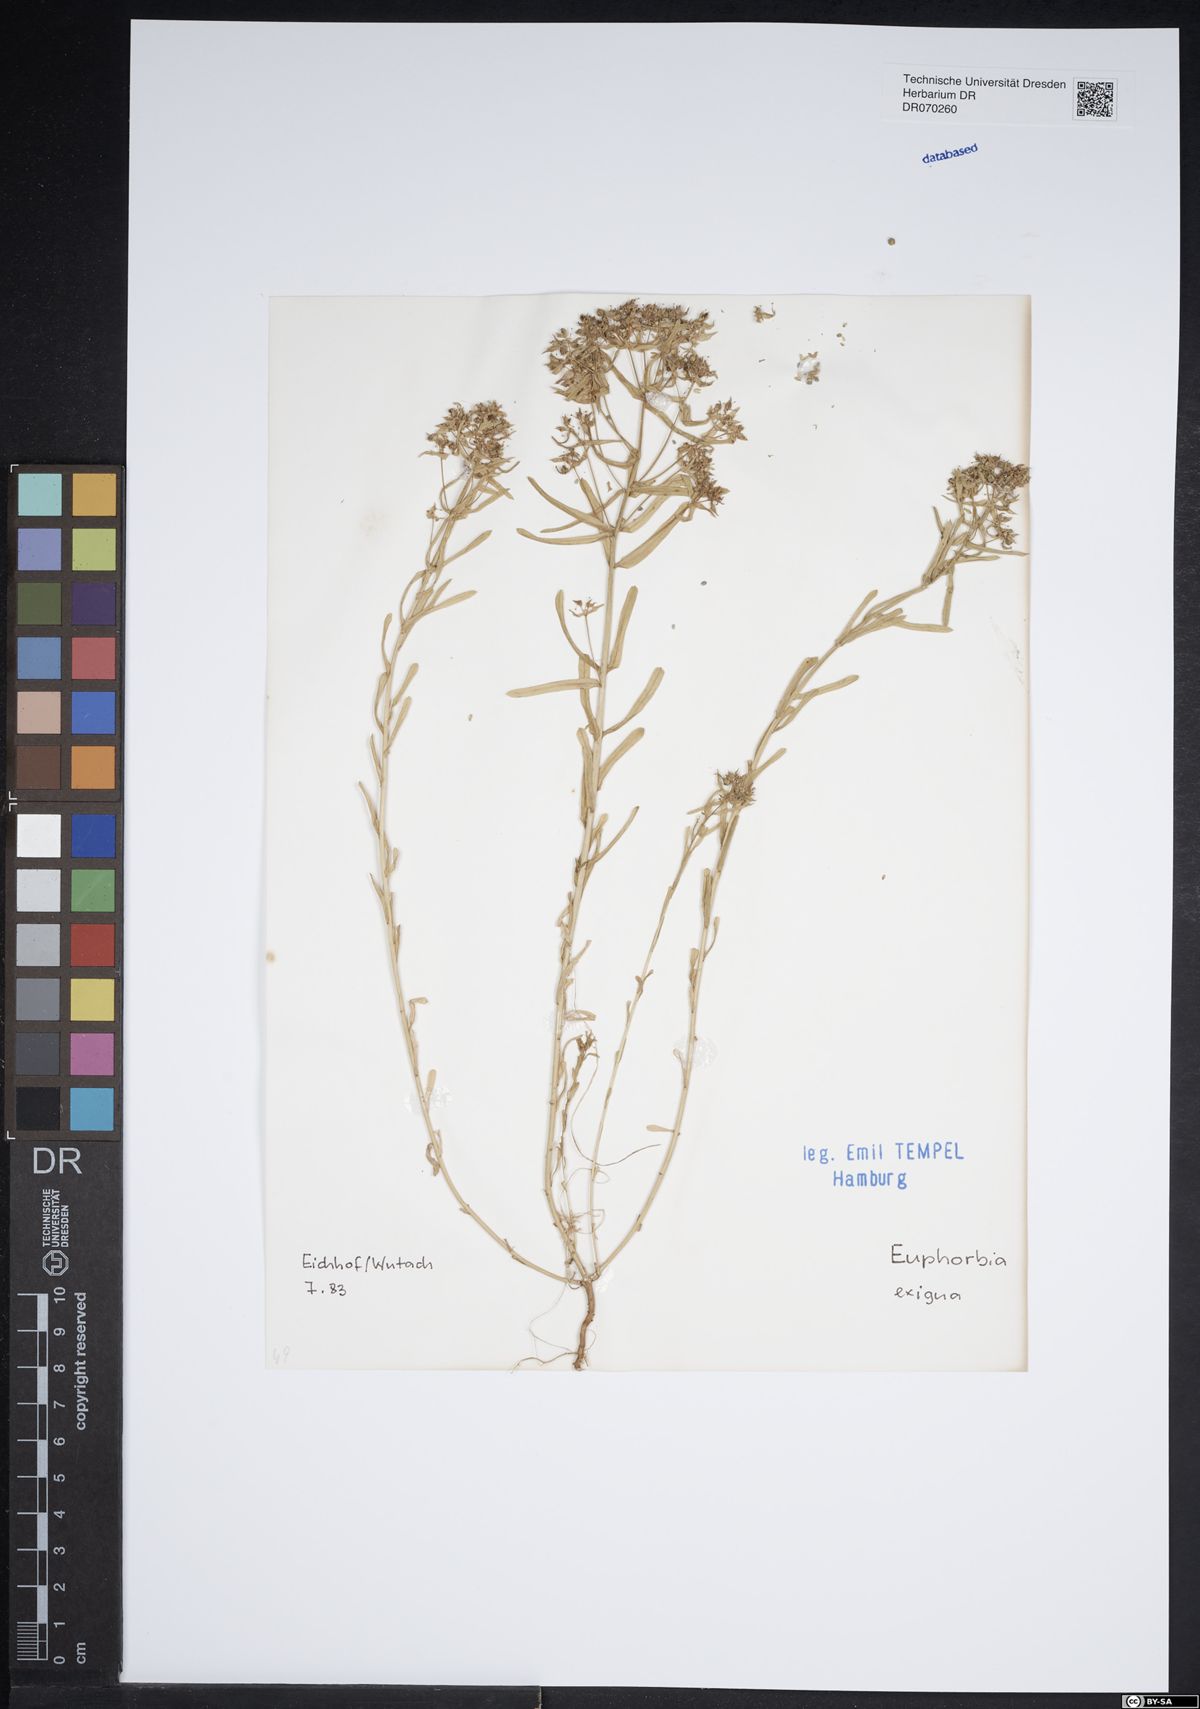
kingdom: Plantae
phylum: Tracheophyta
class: Magnoliopsida
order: Malpighiales
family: Euphorbiaceae
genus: Euphorbia
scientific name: Euphorbia exigua
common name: Dwarf spurge
